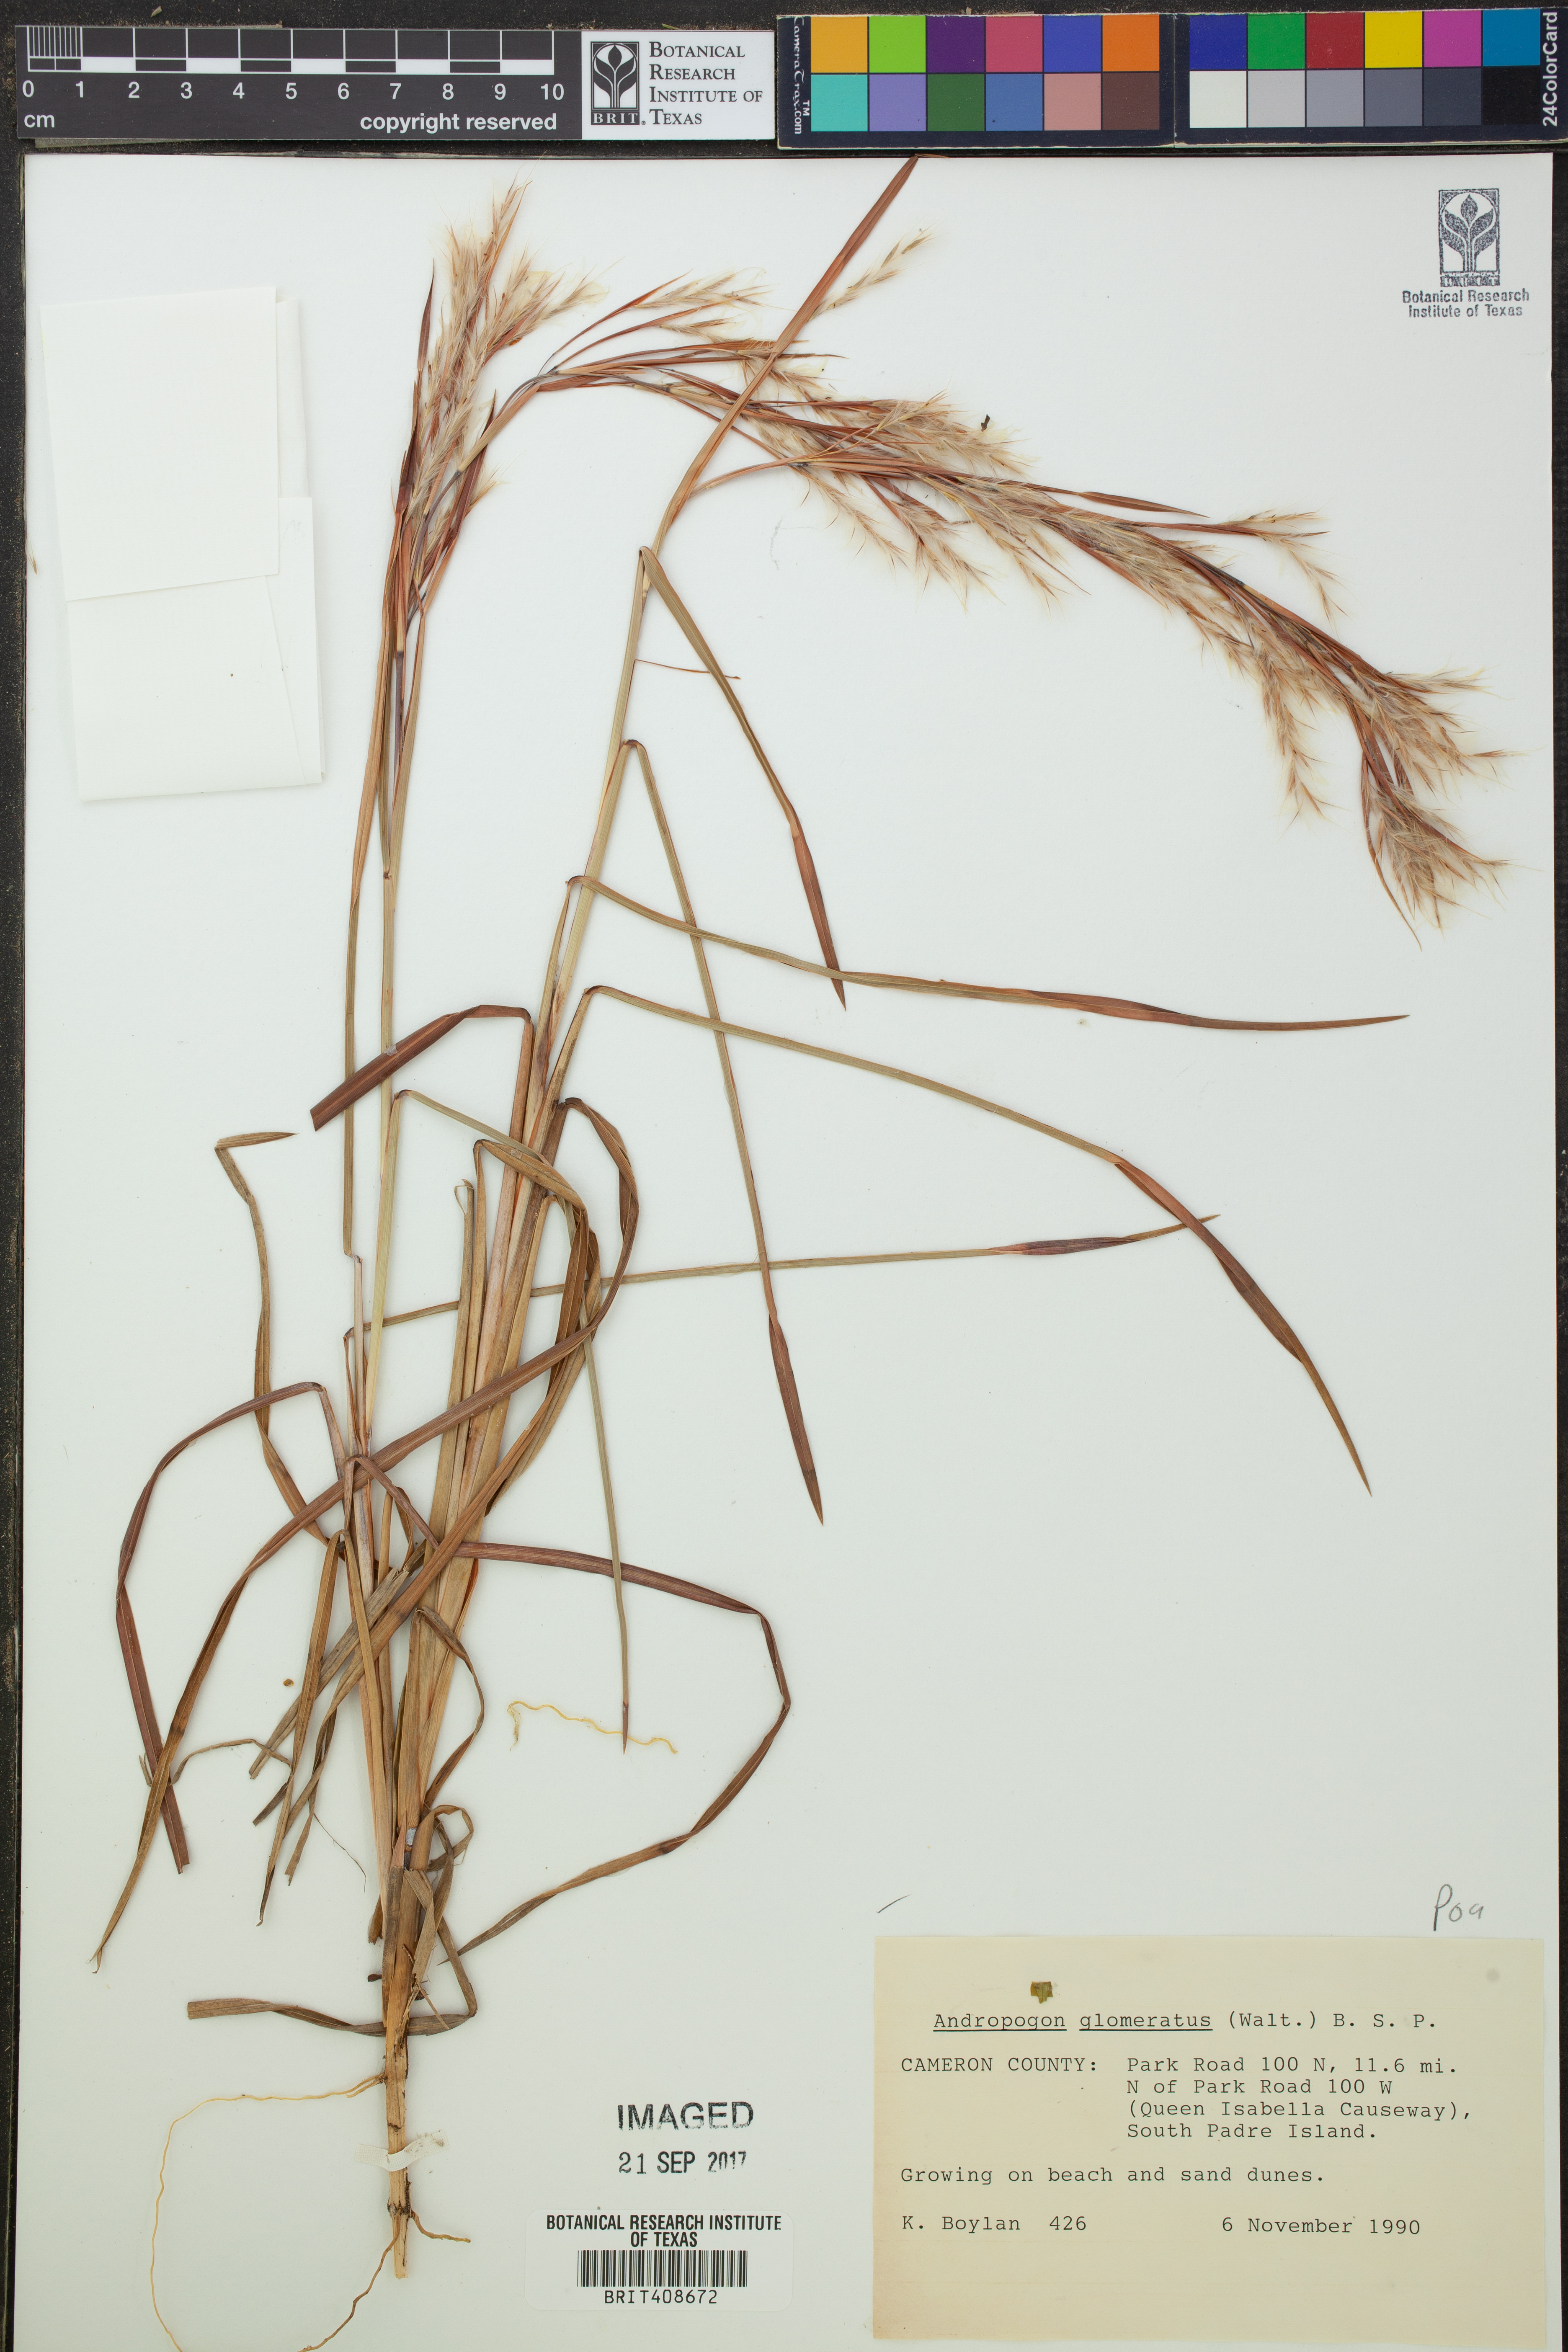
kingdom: Plantae
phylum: Tracheophyta
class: Liliopsida
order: Poales
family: Poaceae
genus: Andropogon
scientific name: Andropogon glomeratus
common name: Bushy beard grass
